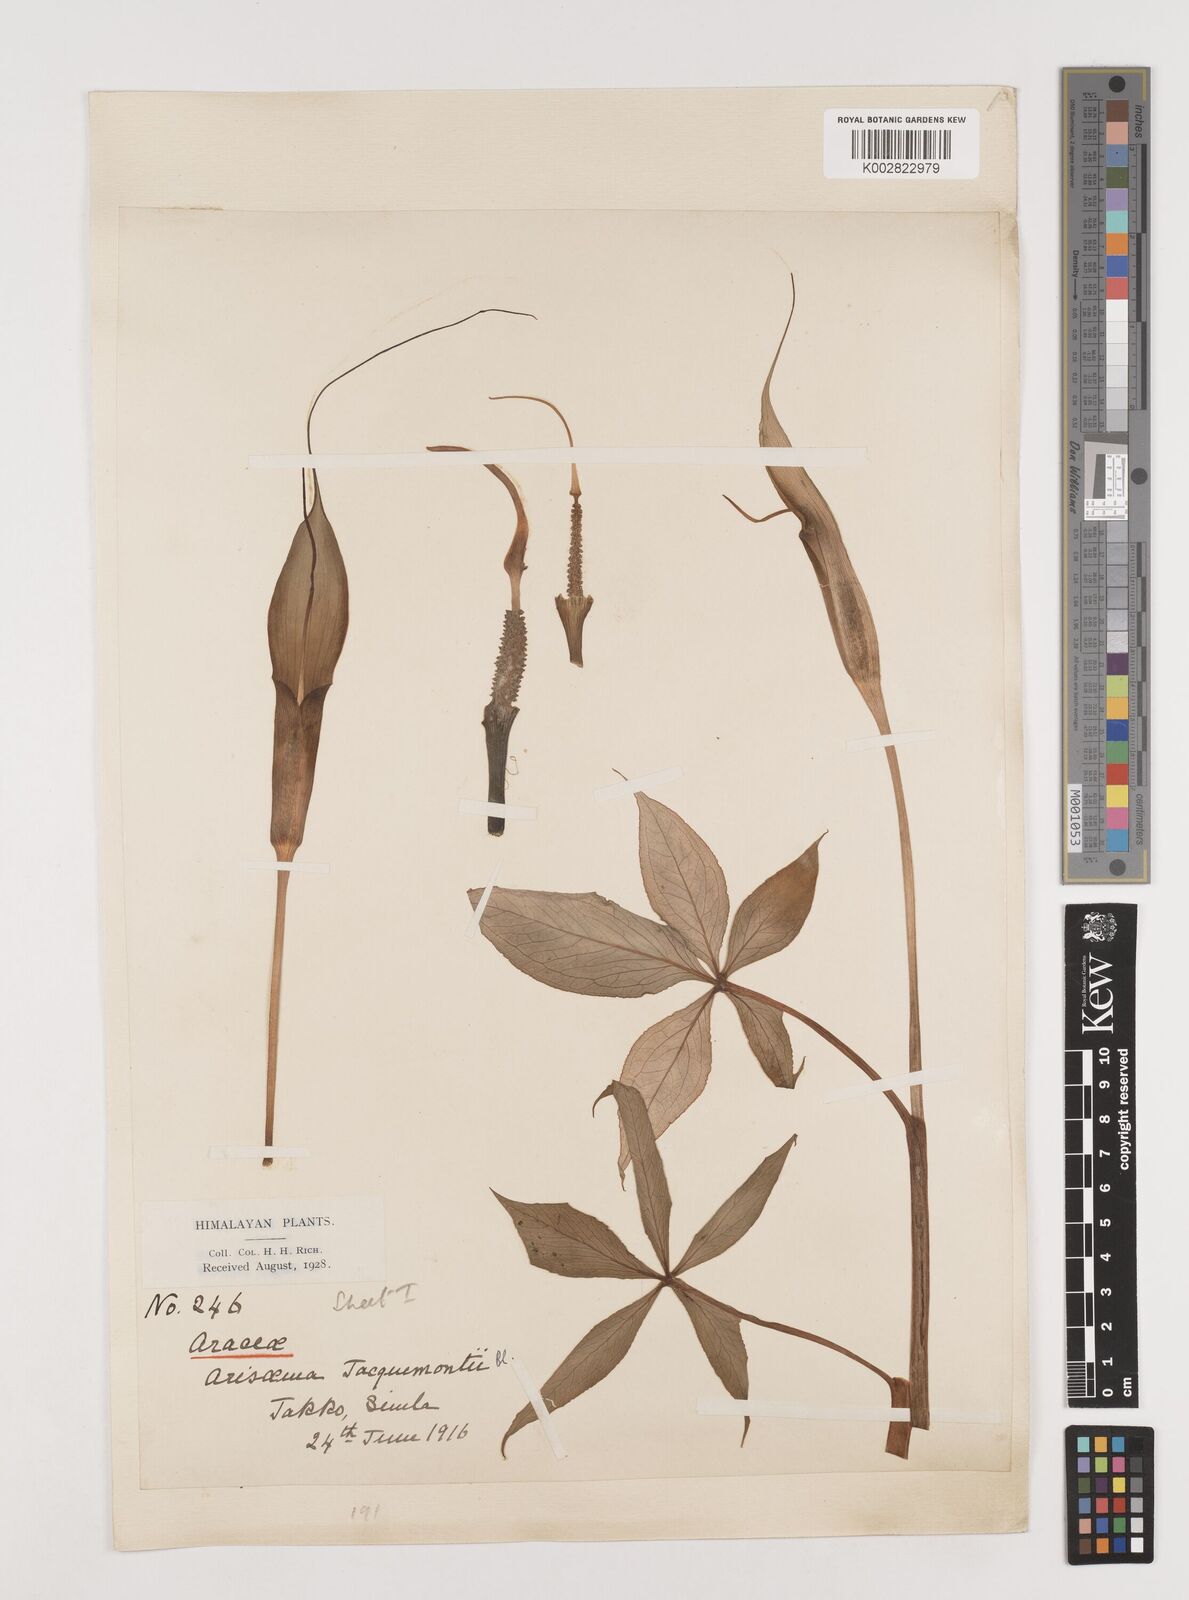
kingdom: Plantae
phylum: Tracheophyta
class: Liliopsida
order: Alismatales
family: Araceae
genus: Arisaema
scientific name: Arisaema jacquemontii
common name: Jacquemont's cobra-lily
